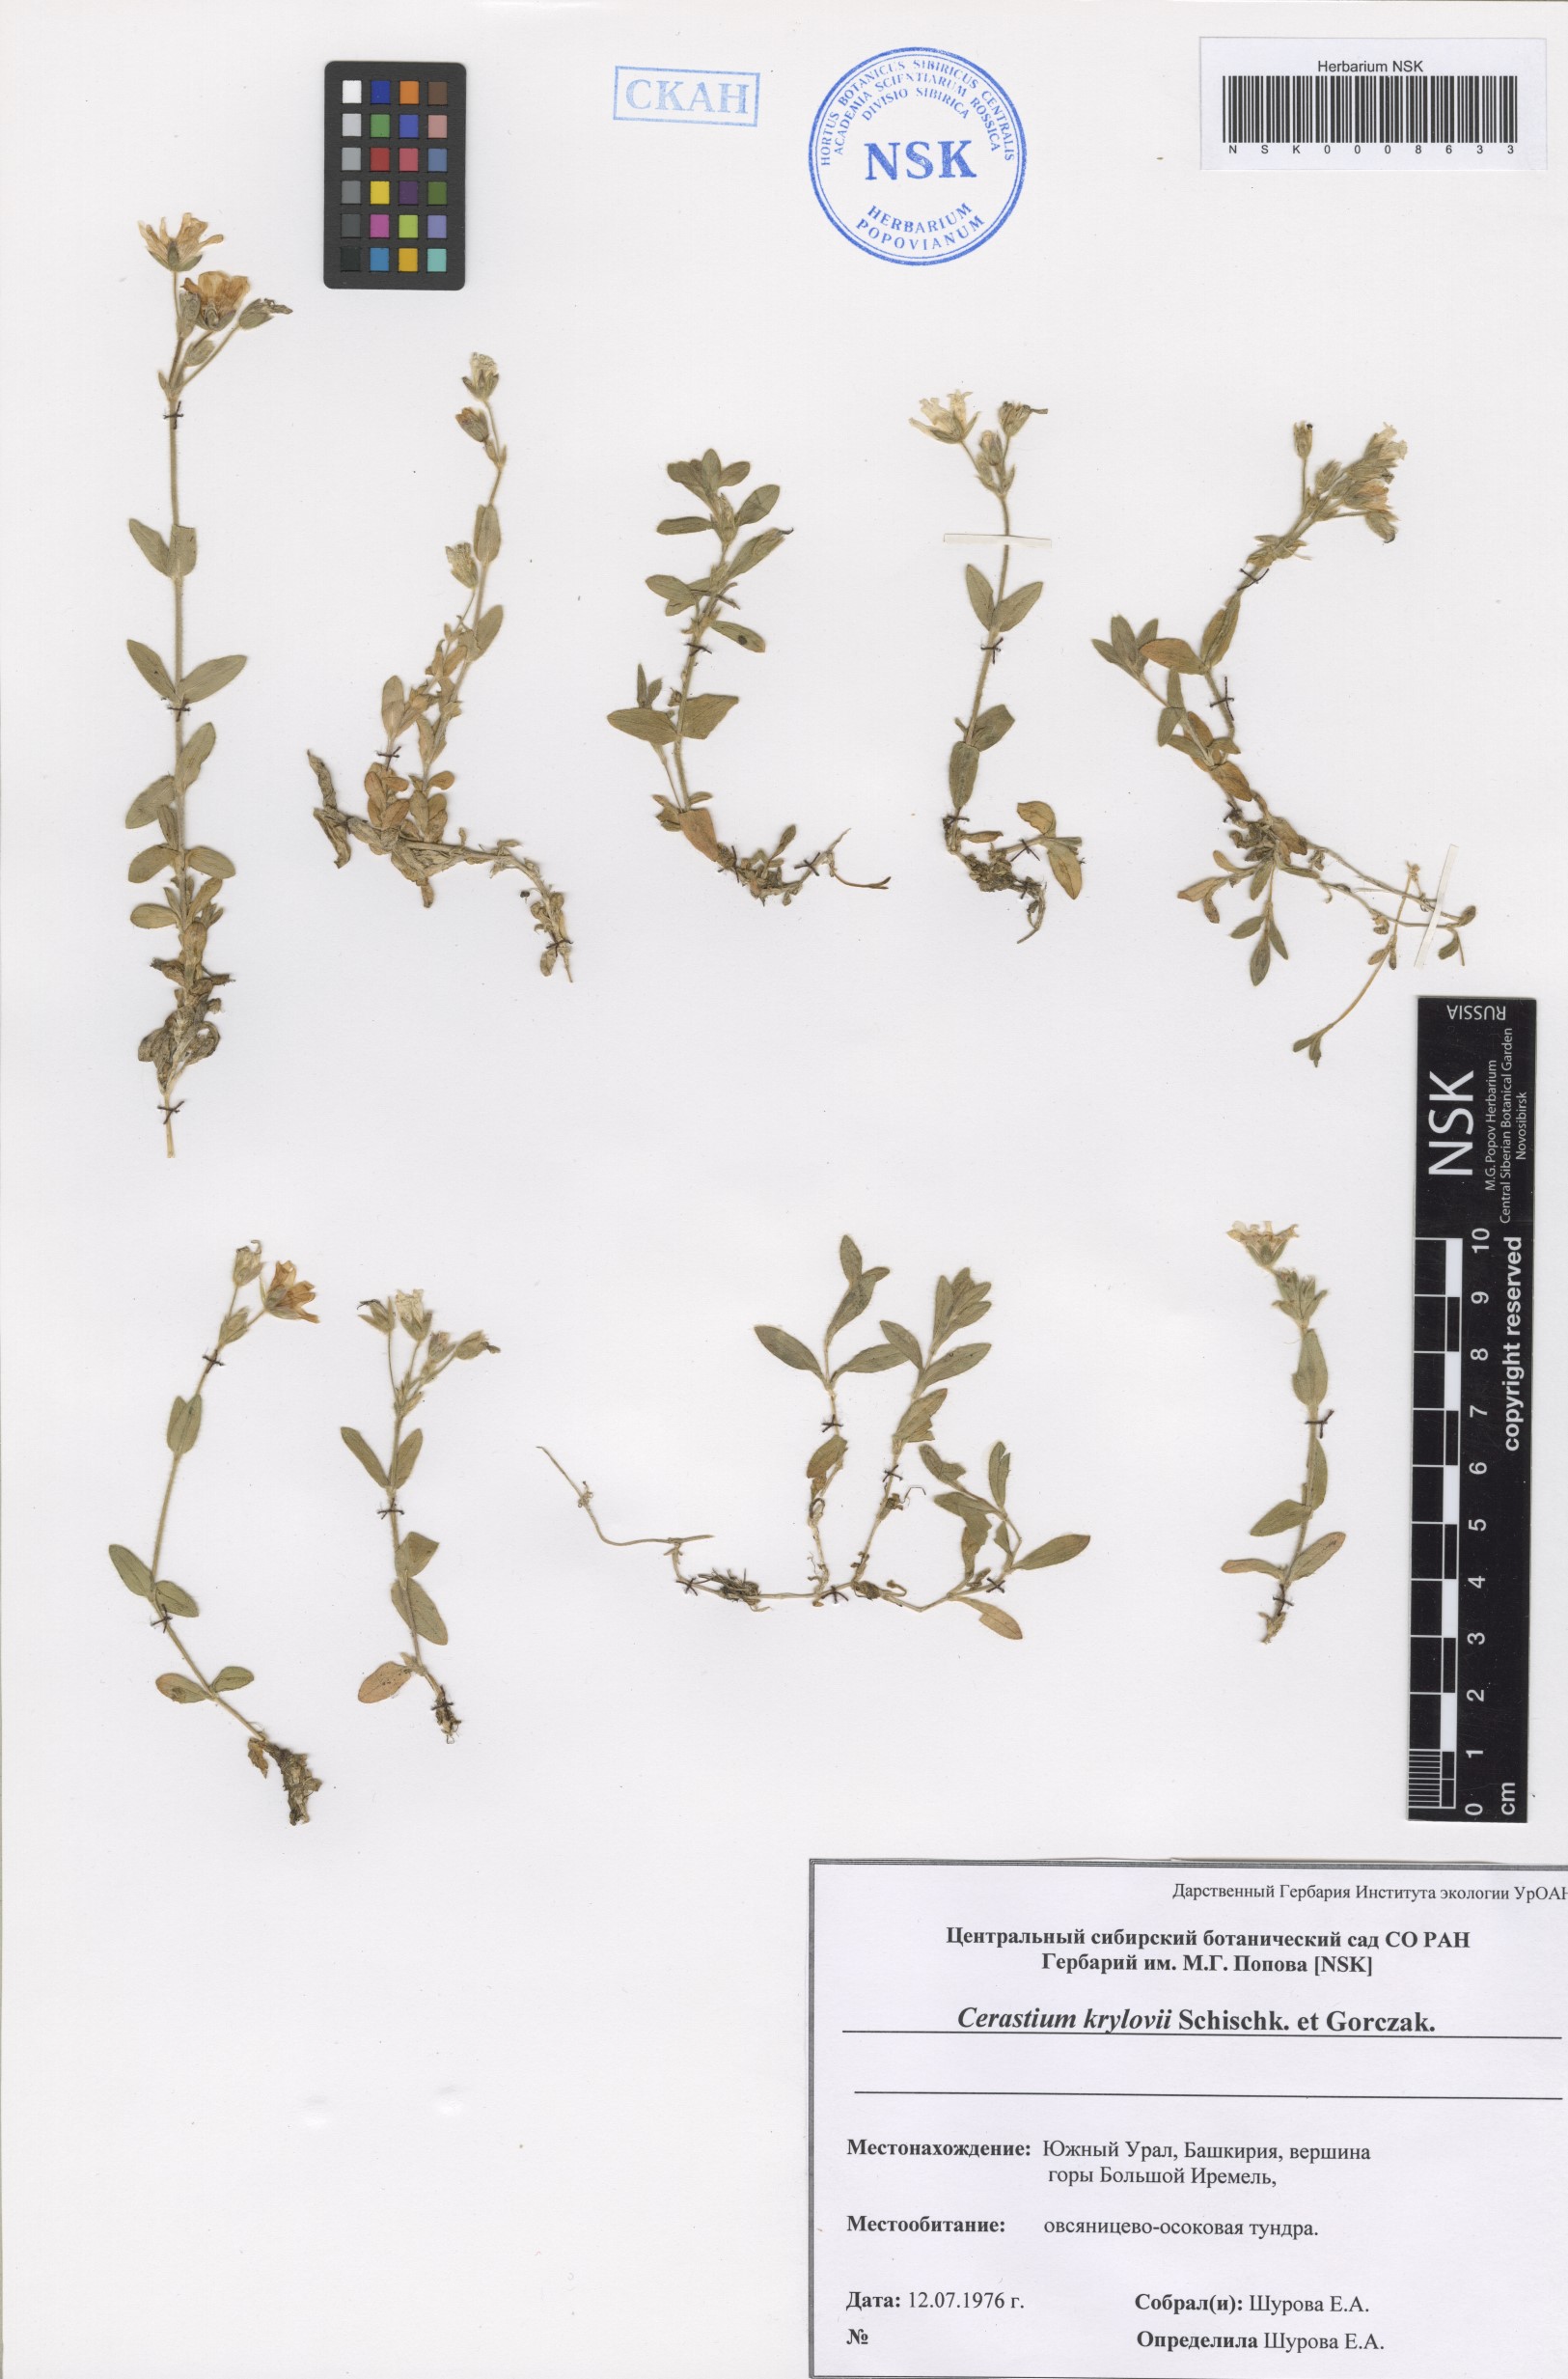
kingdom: Plantae
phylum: Tracheophyta
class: Magnoliopsida
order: Caryophyllales
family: Caryophyllaceae
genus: Cerastium
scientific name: Cerastium krylovii
